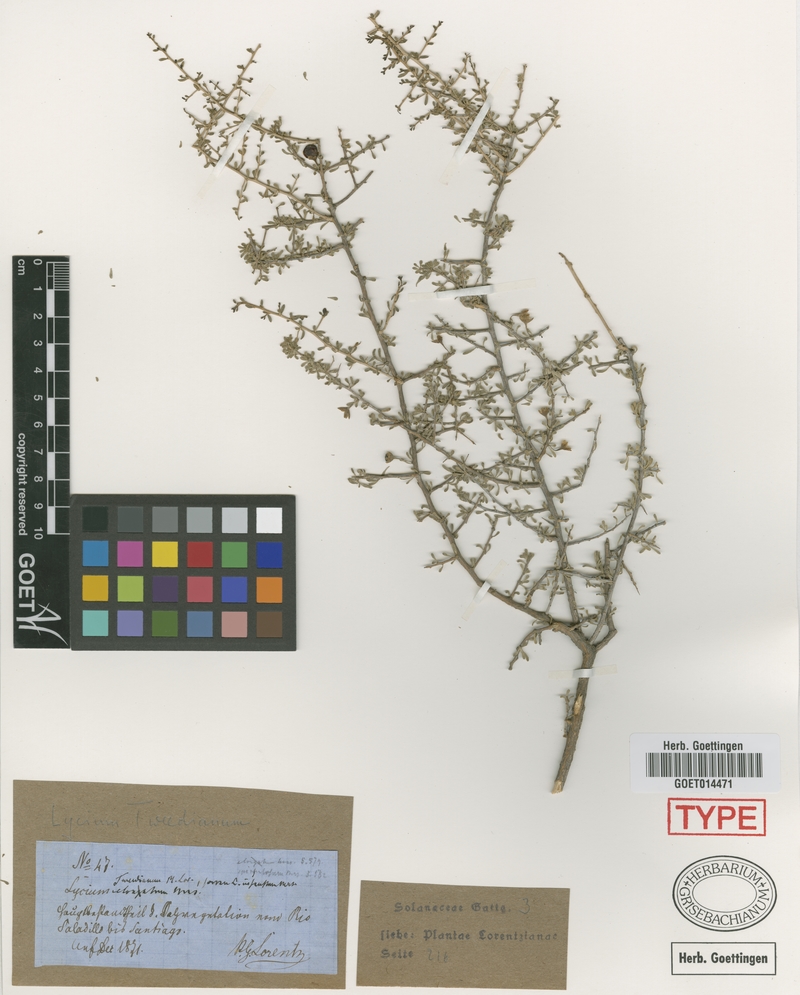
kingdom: Plantae
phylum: Tracheophyta
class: Magnoliopsida
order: Solanales
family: Solanaceae
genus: Lycium
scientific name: Lycium americanum
